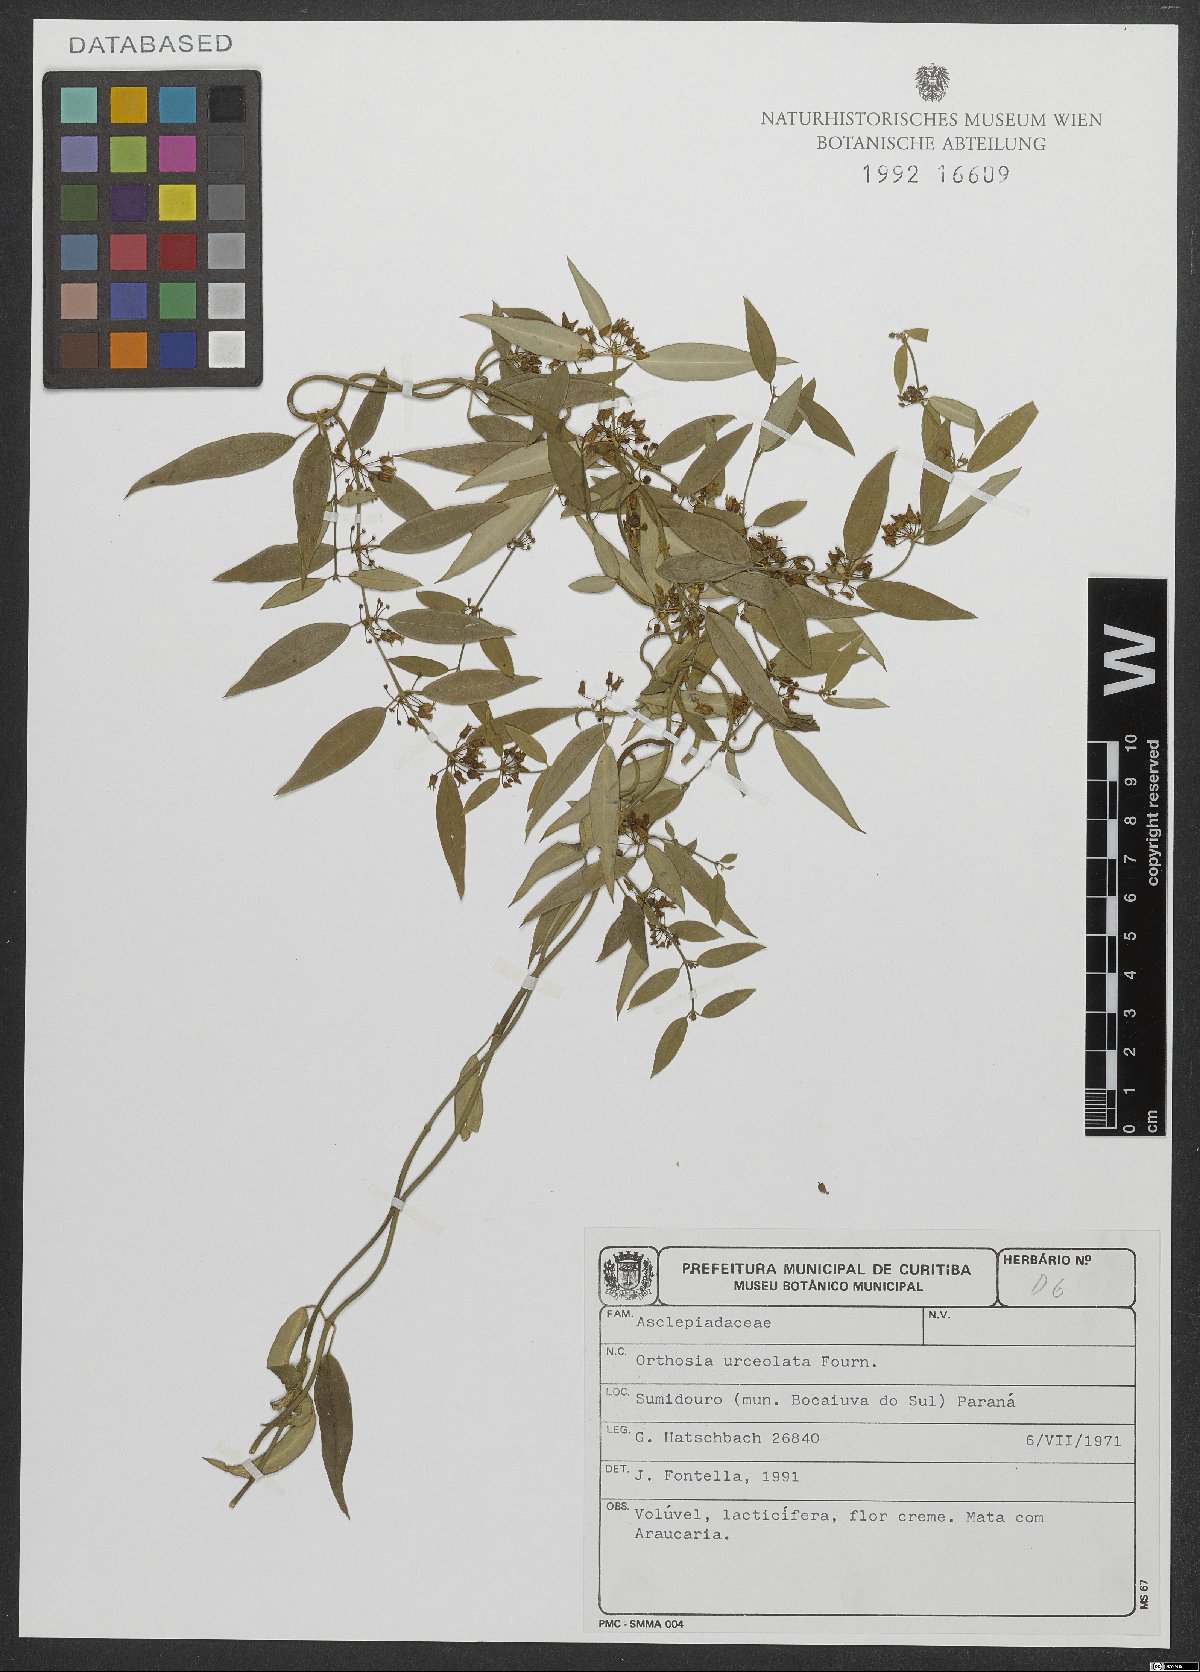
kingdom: Plantae
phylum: Tracheophyta
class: Magnoliopsida
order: Gentianales
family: Apocynaceae
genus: Orthosia
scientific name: Orthosia urceolata
